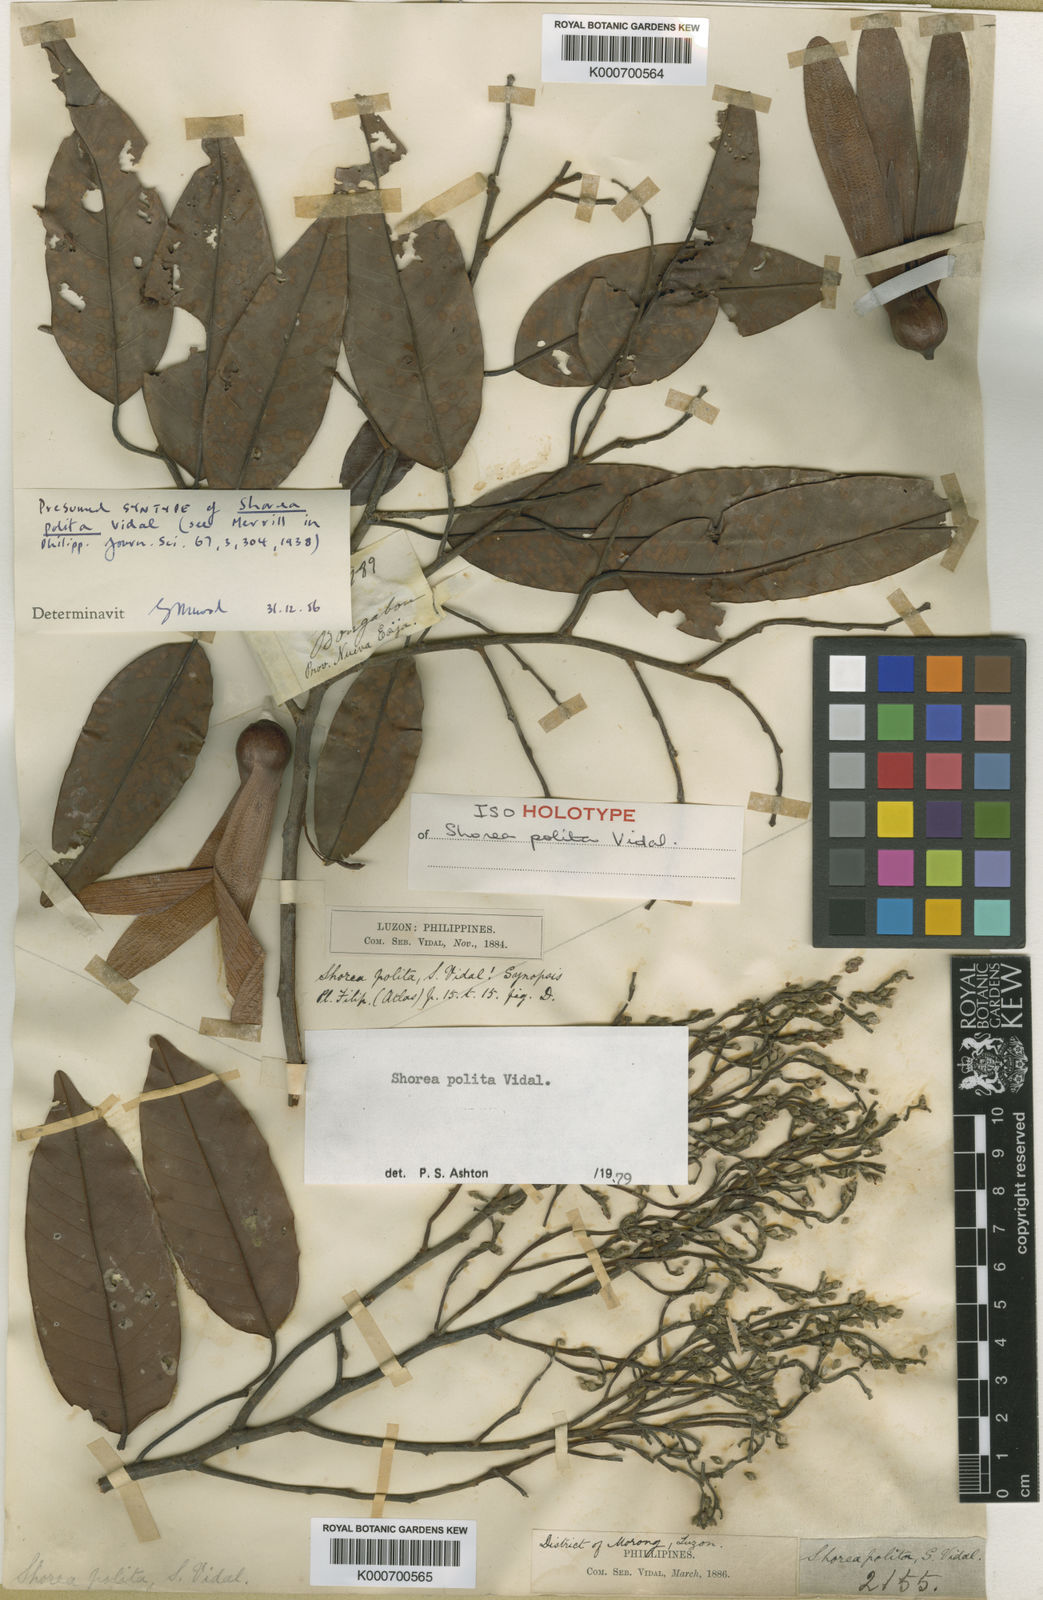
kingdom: Plantae
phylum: Tracheophyta
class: Magnoliopsida
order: Malvales
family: Dipterocarpaceae
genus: Anthoshorea
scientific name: Anthoshorea polita
